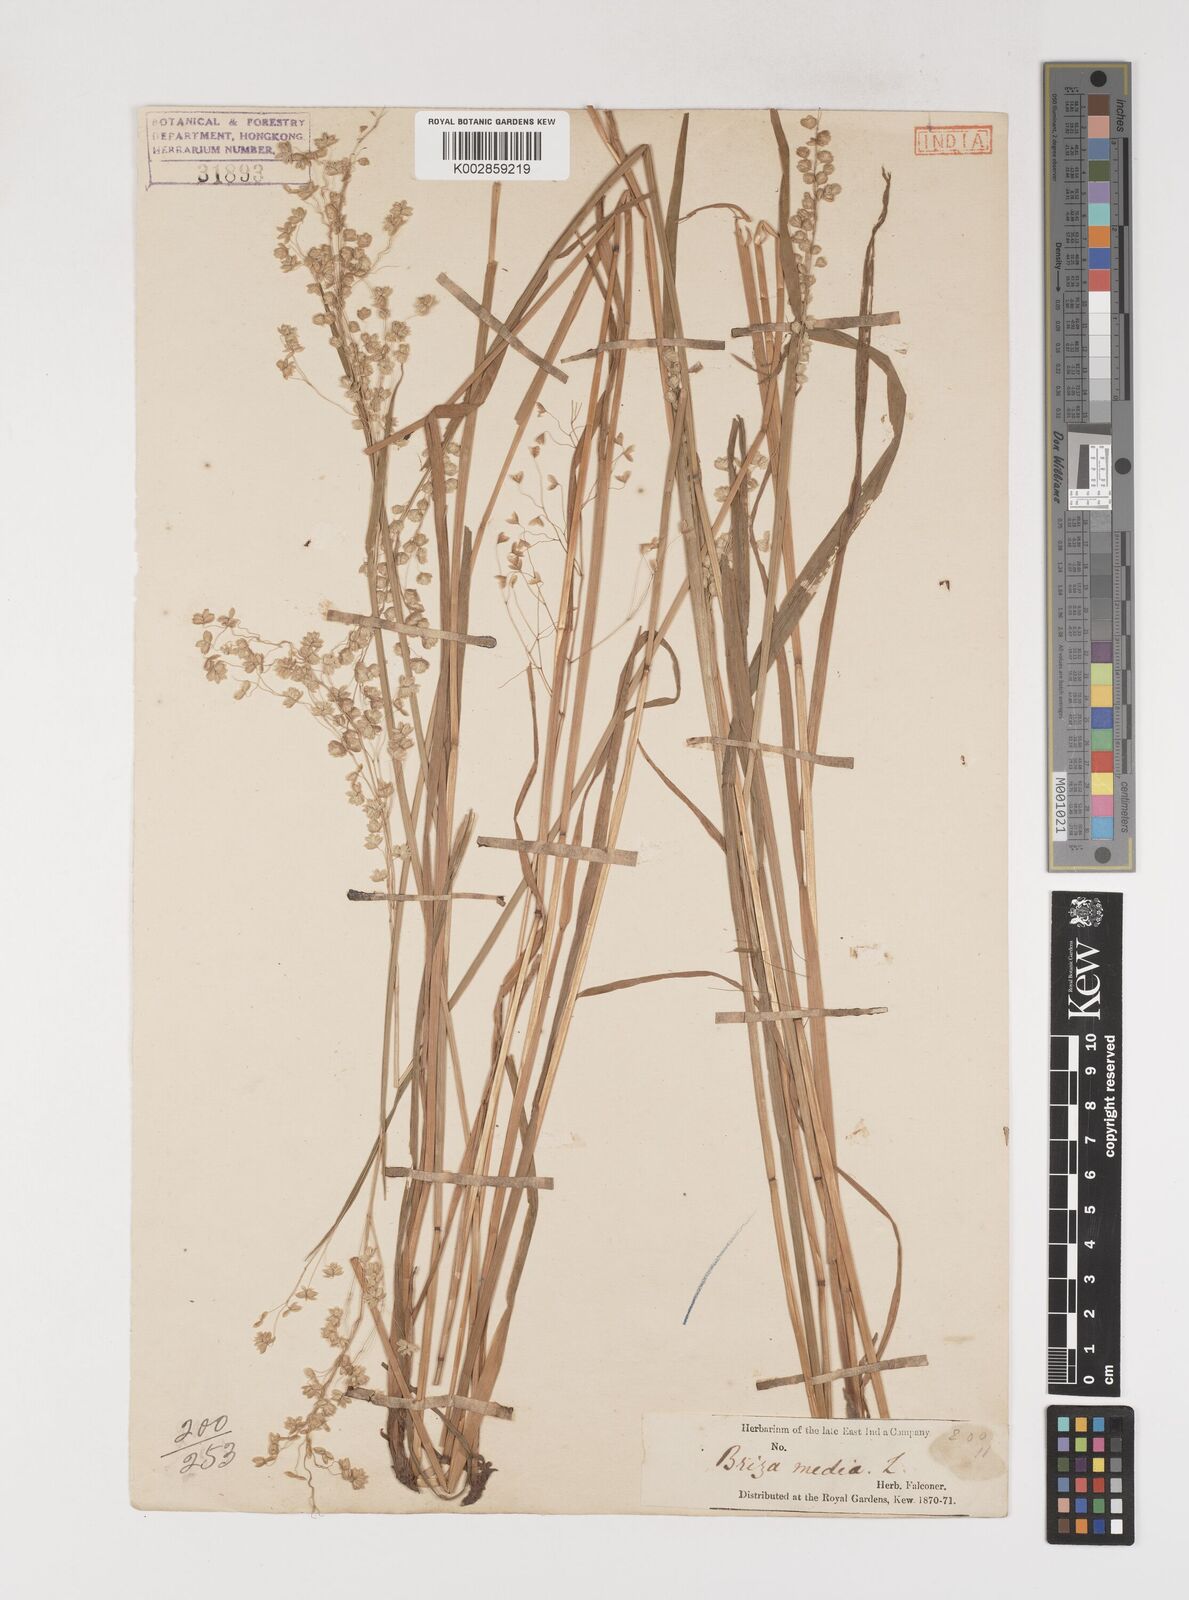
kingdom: Plantae
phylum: Tracheophyta
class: Liliopsida
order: Poales
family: Poaceae
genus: Briza
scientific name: Briza media
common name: Quaking grass
